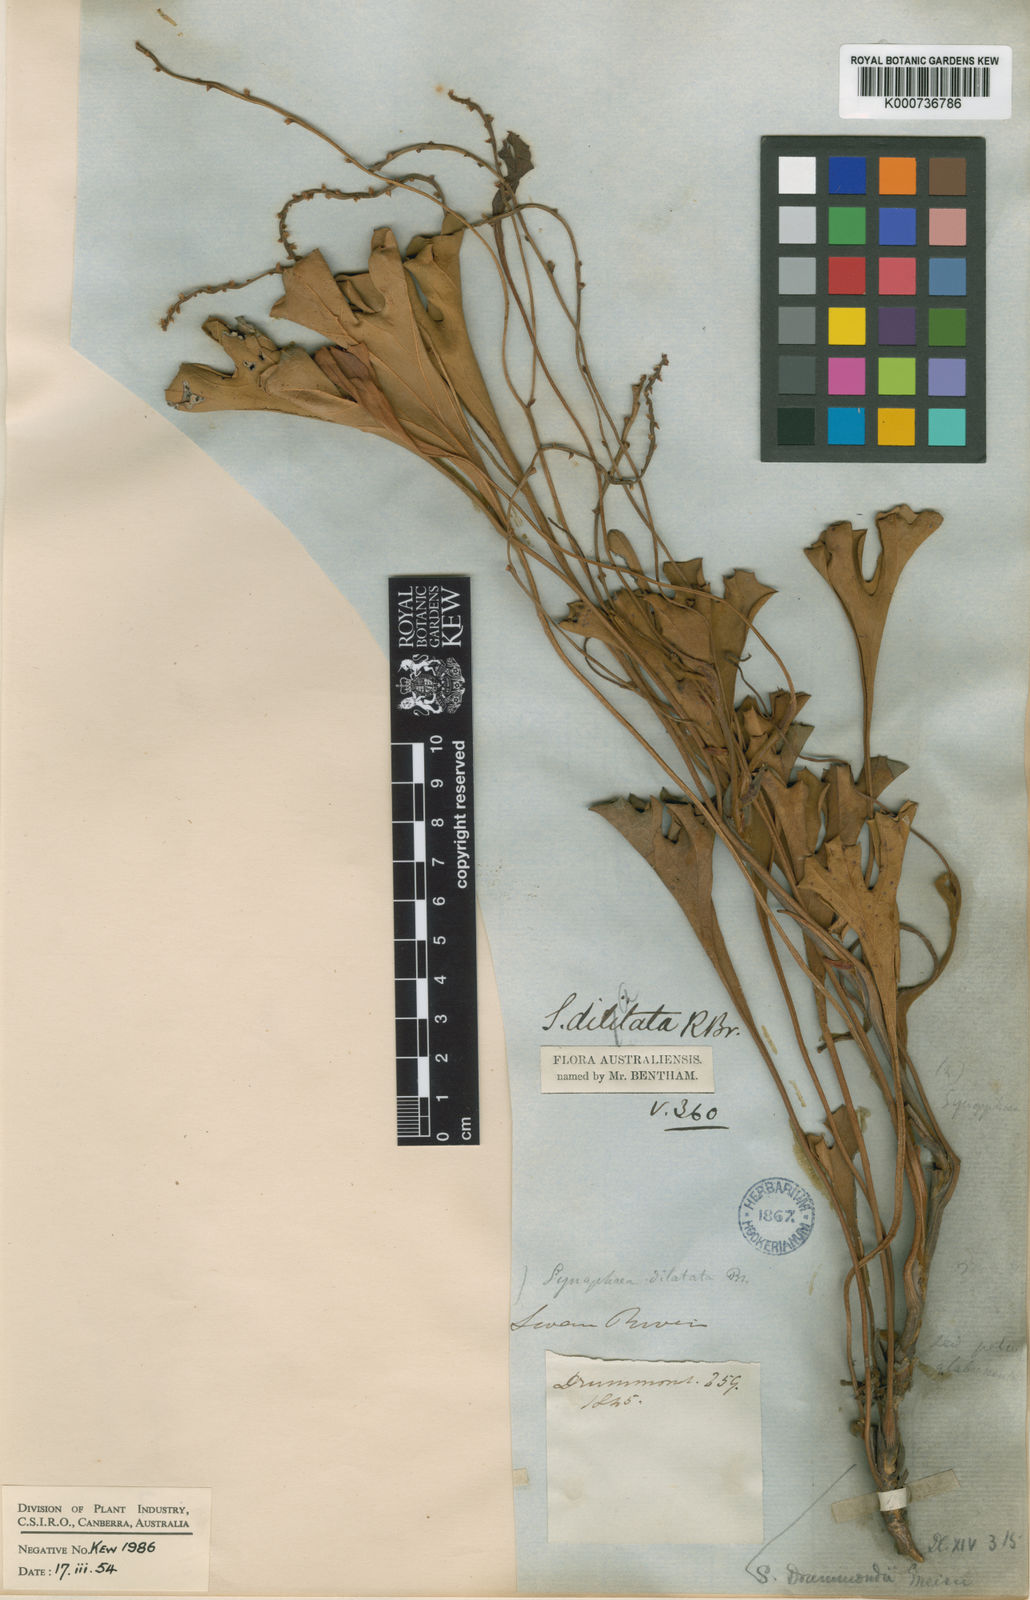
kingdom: Plantae
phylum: Tracheophyta
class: Magnoliopsida
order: Proteales
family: Proteaceae
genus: Synaphea
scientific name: Synaphea drummondii
